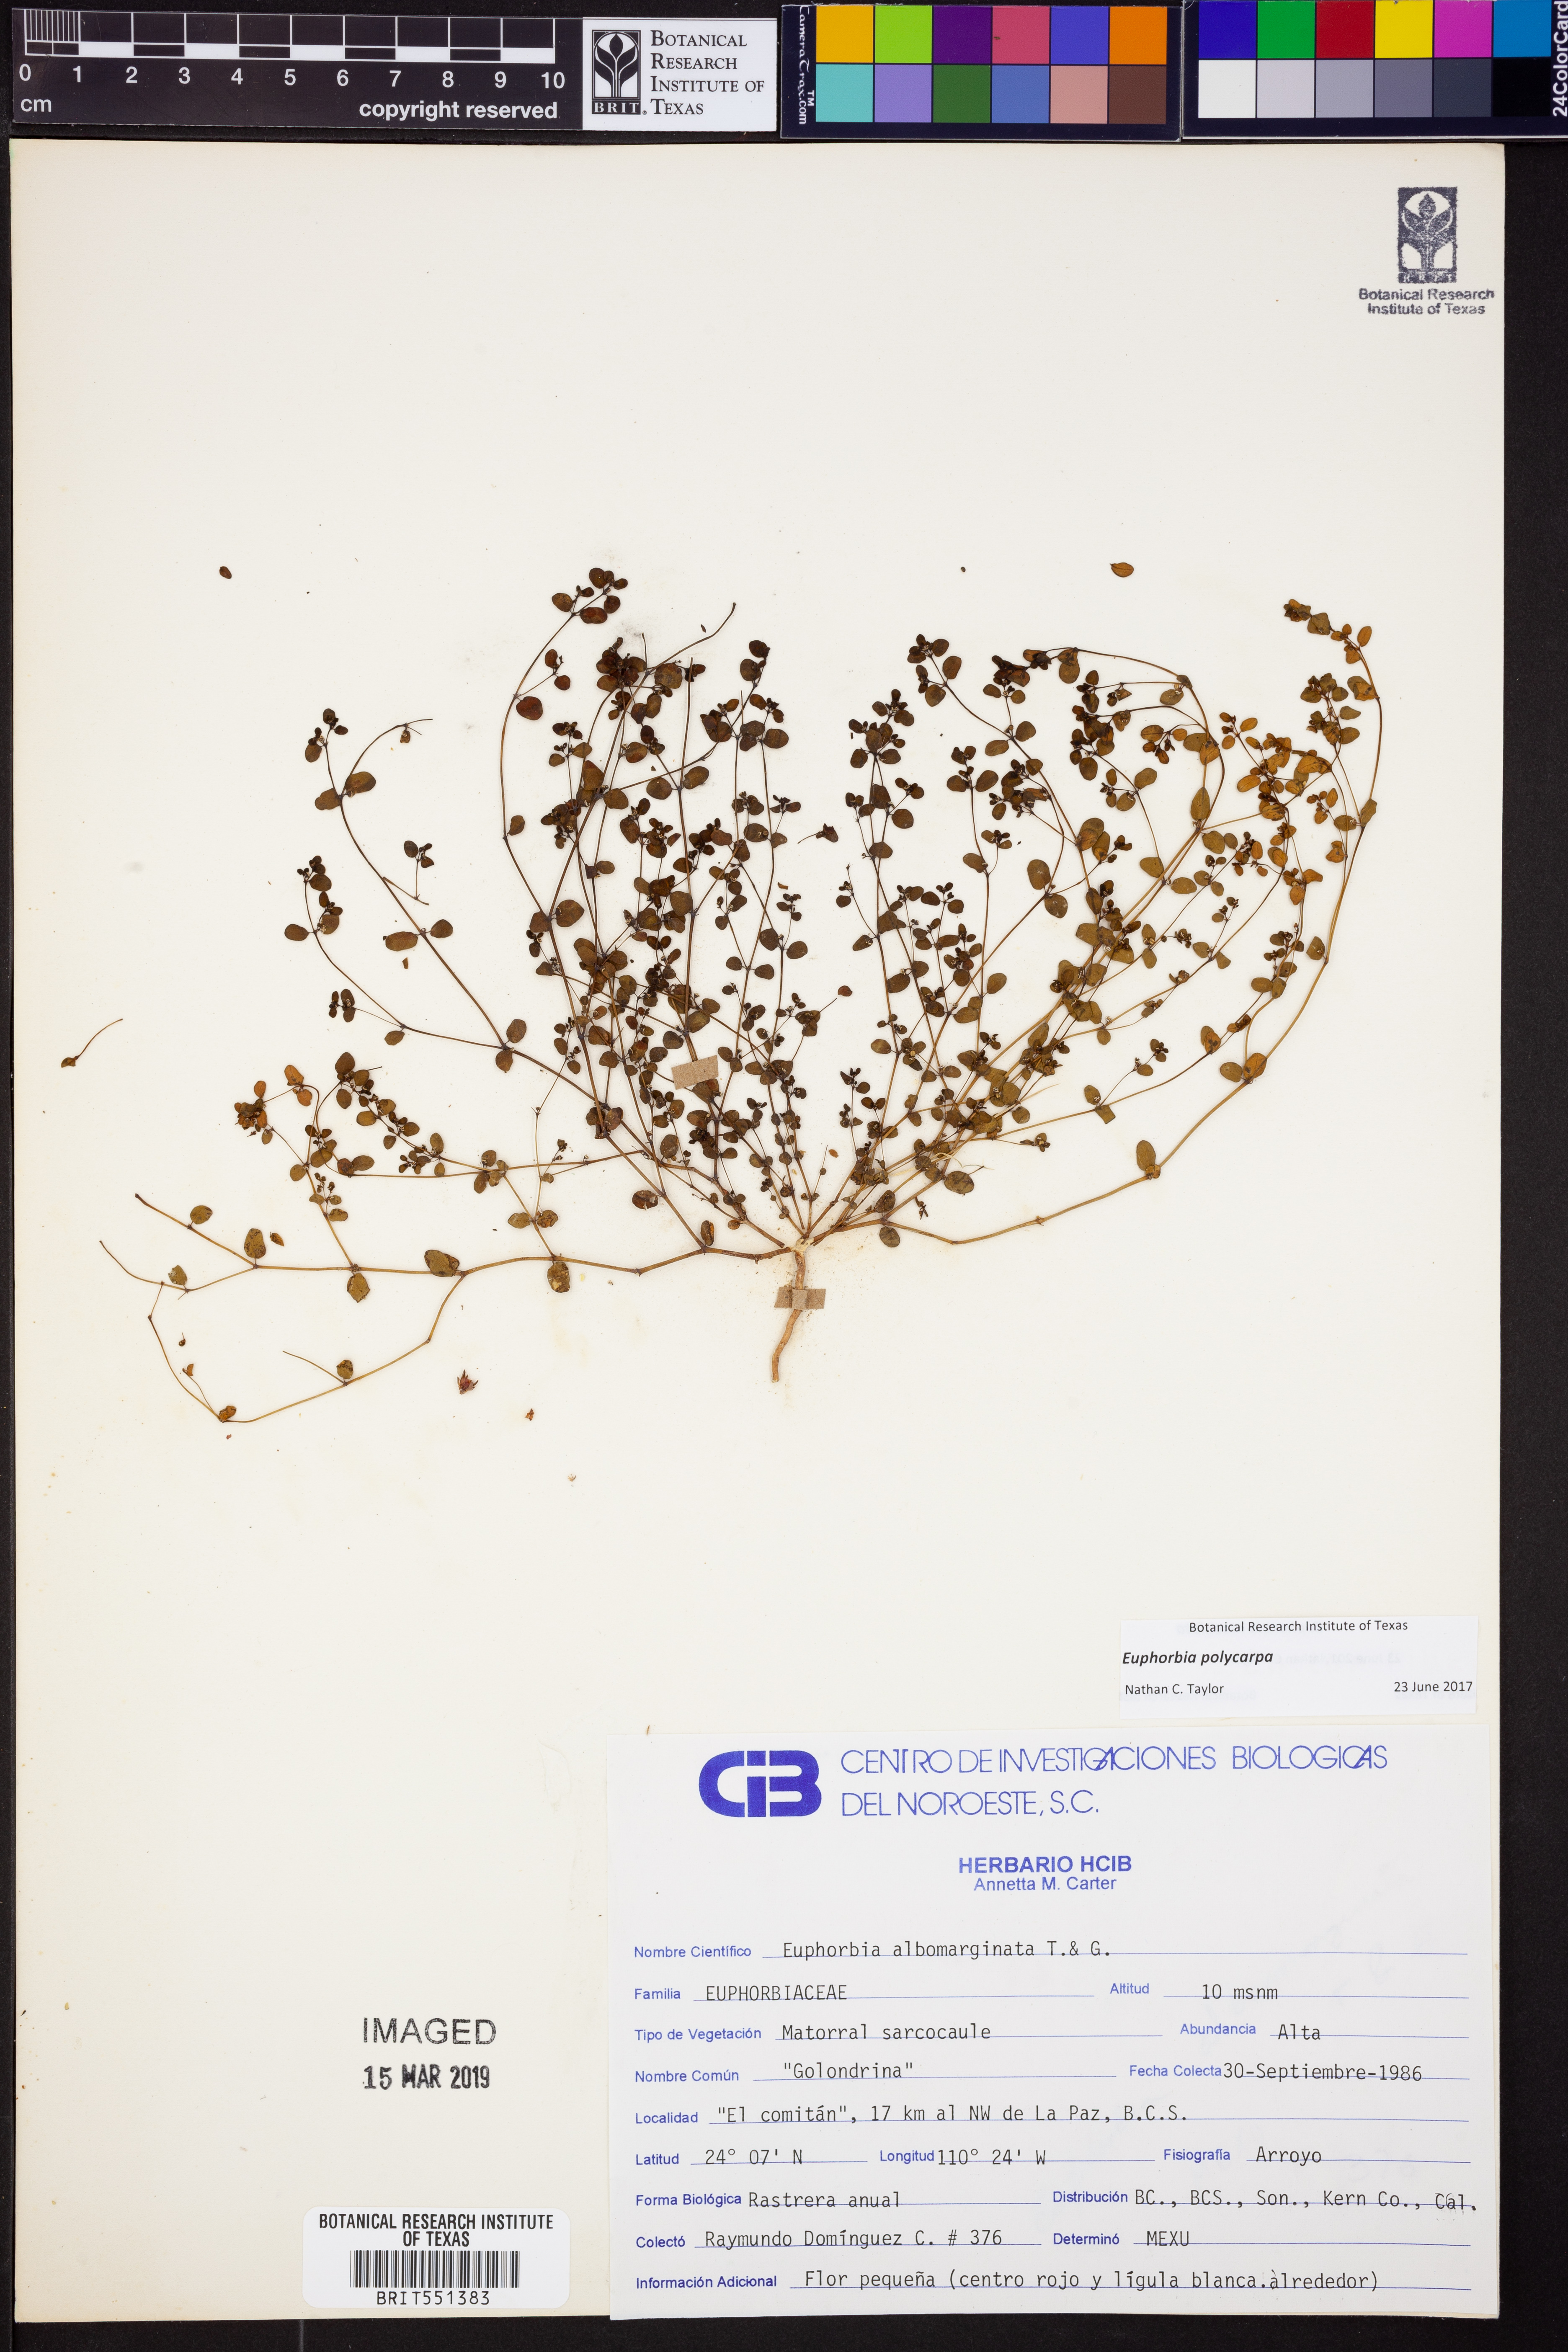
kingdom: Plantae
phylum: Tracheophyta
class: Magnoliopsida
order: Malpighiales
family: Euphorbiaceae
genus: Euphorbia
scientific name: Euphorbia polycarpa
